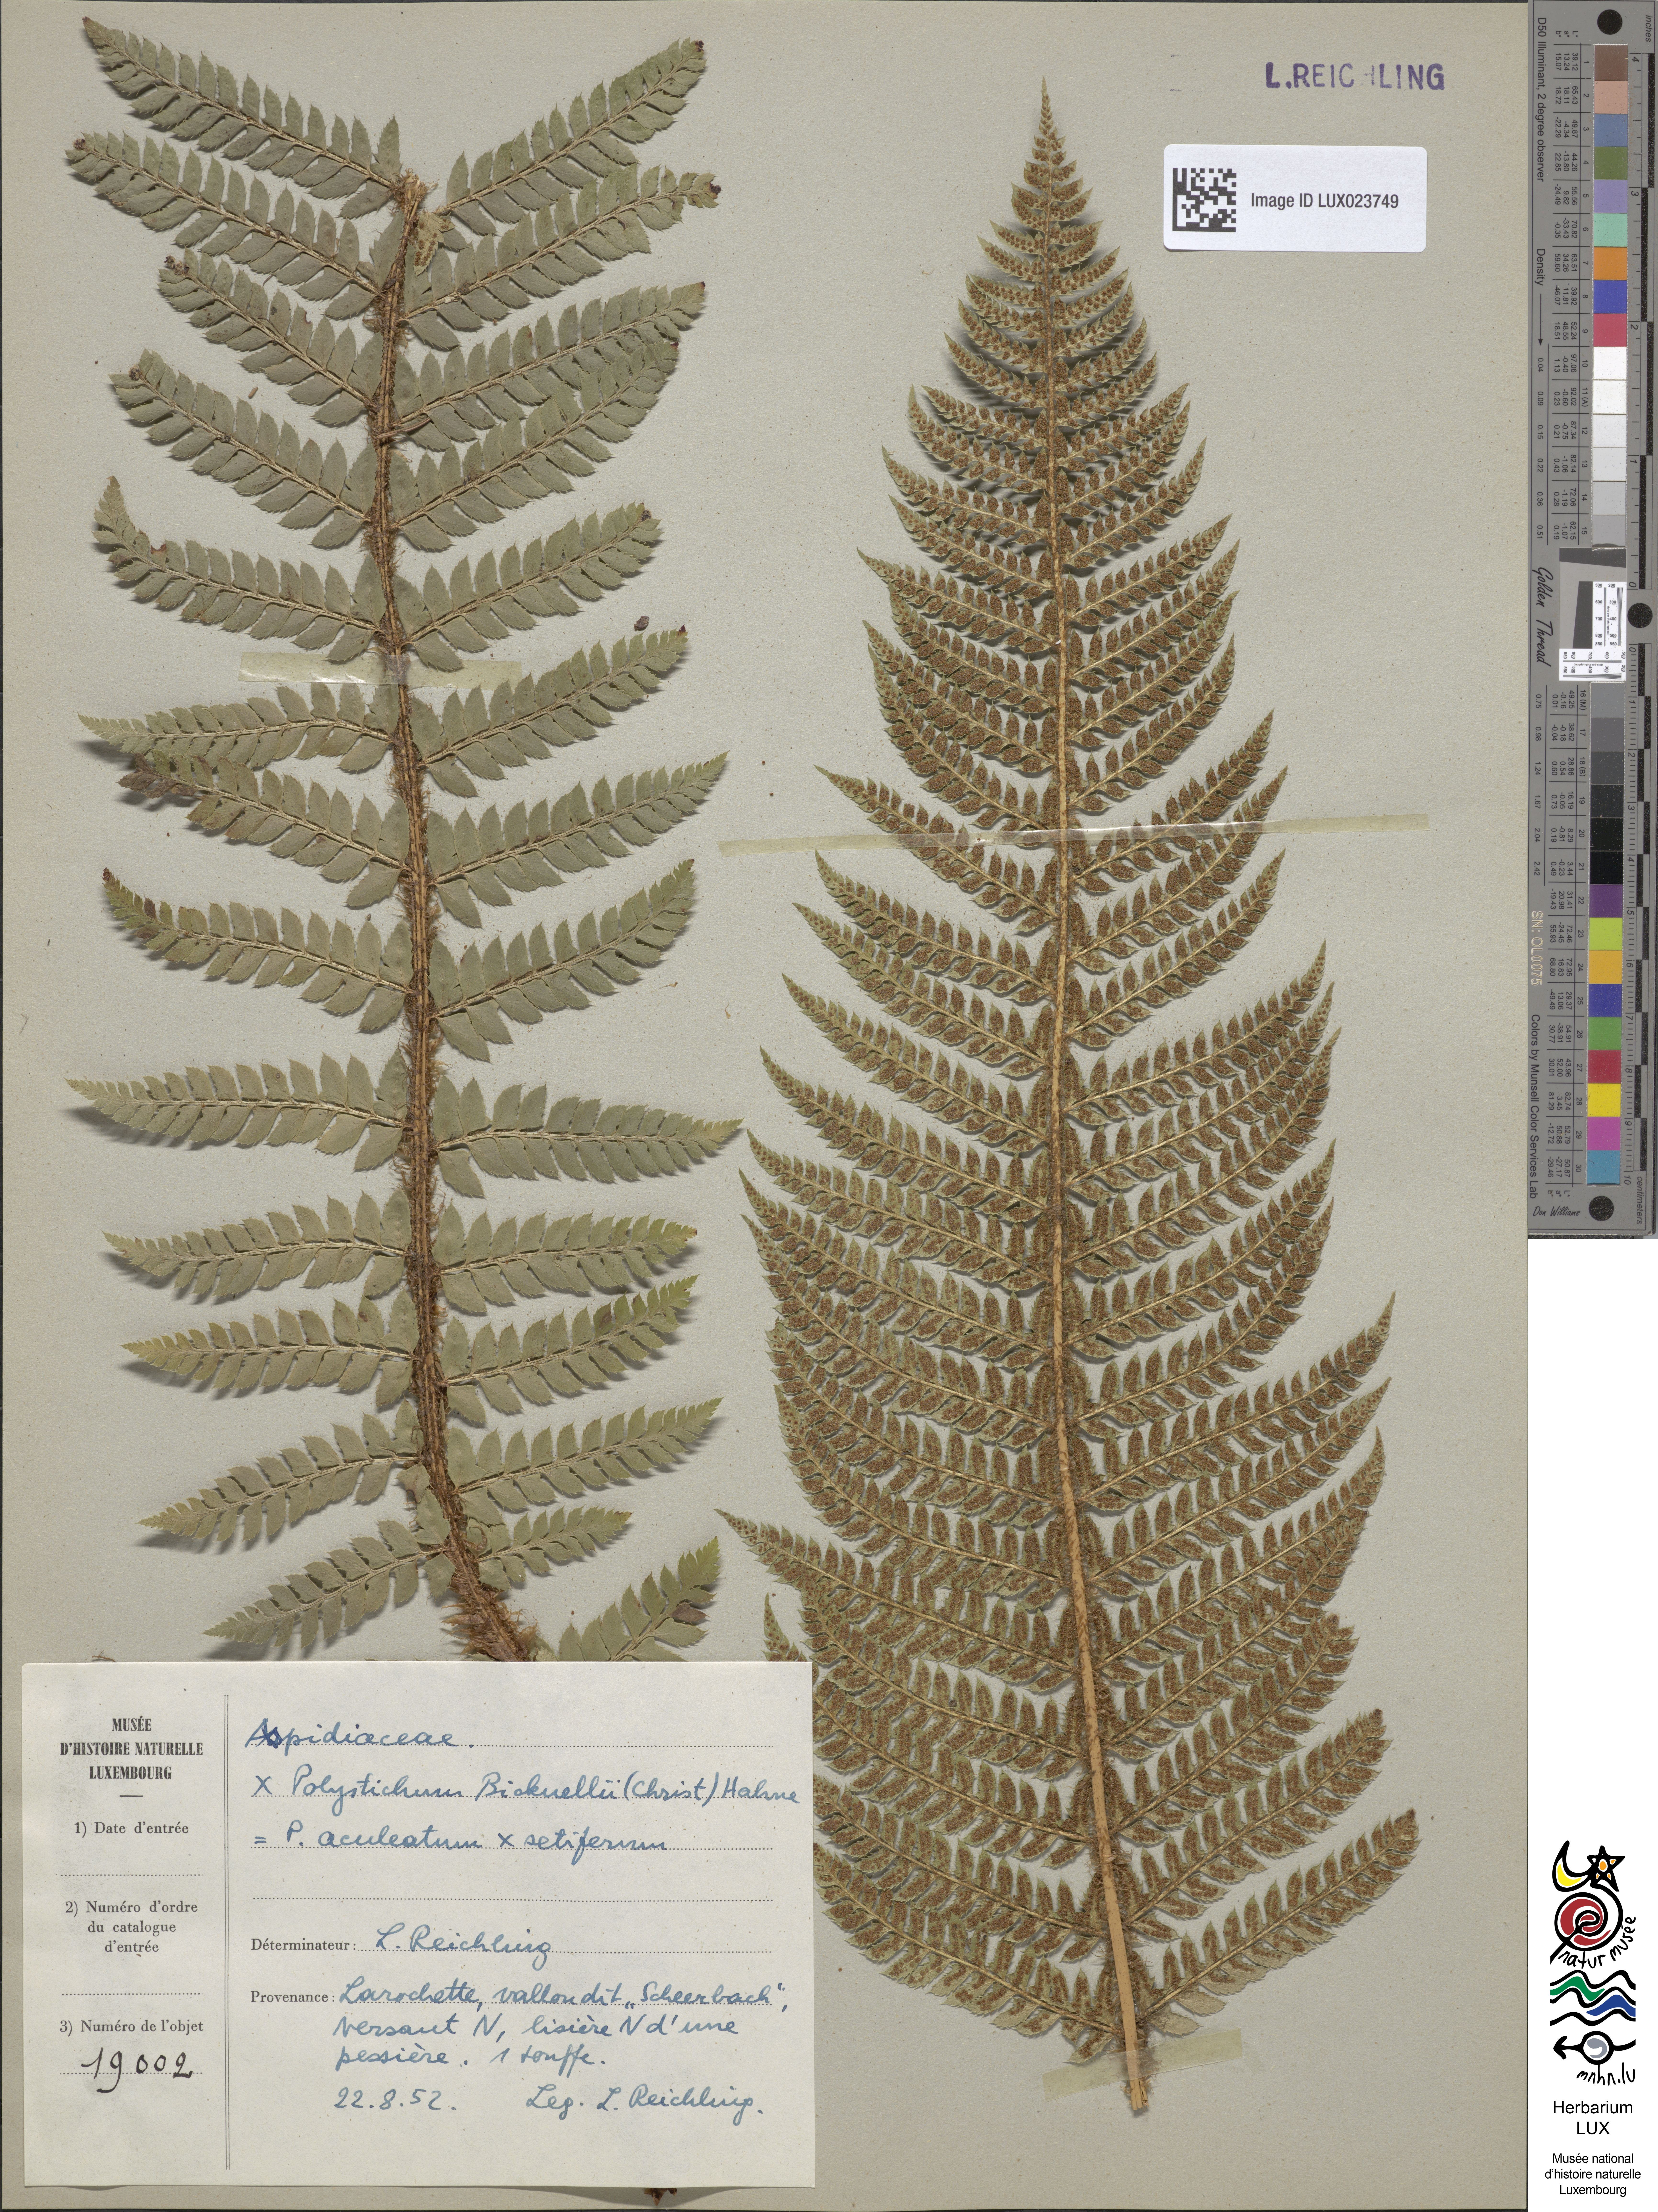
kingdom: Plantae
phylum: Tracheophyta
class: Polypodiopsida
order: Polypodiales
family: Dryopteridaceae
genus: Polystichum
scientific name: Polystichum
